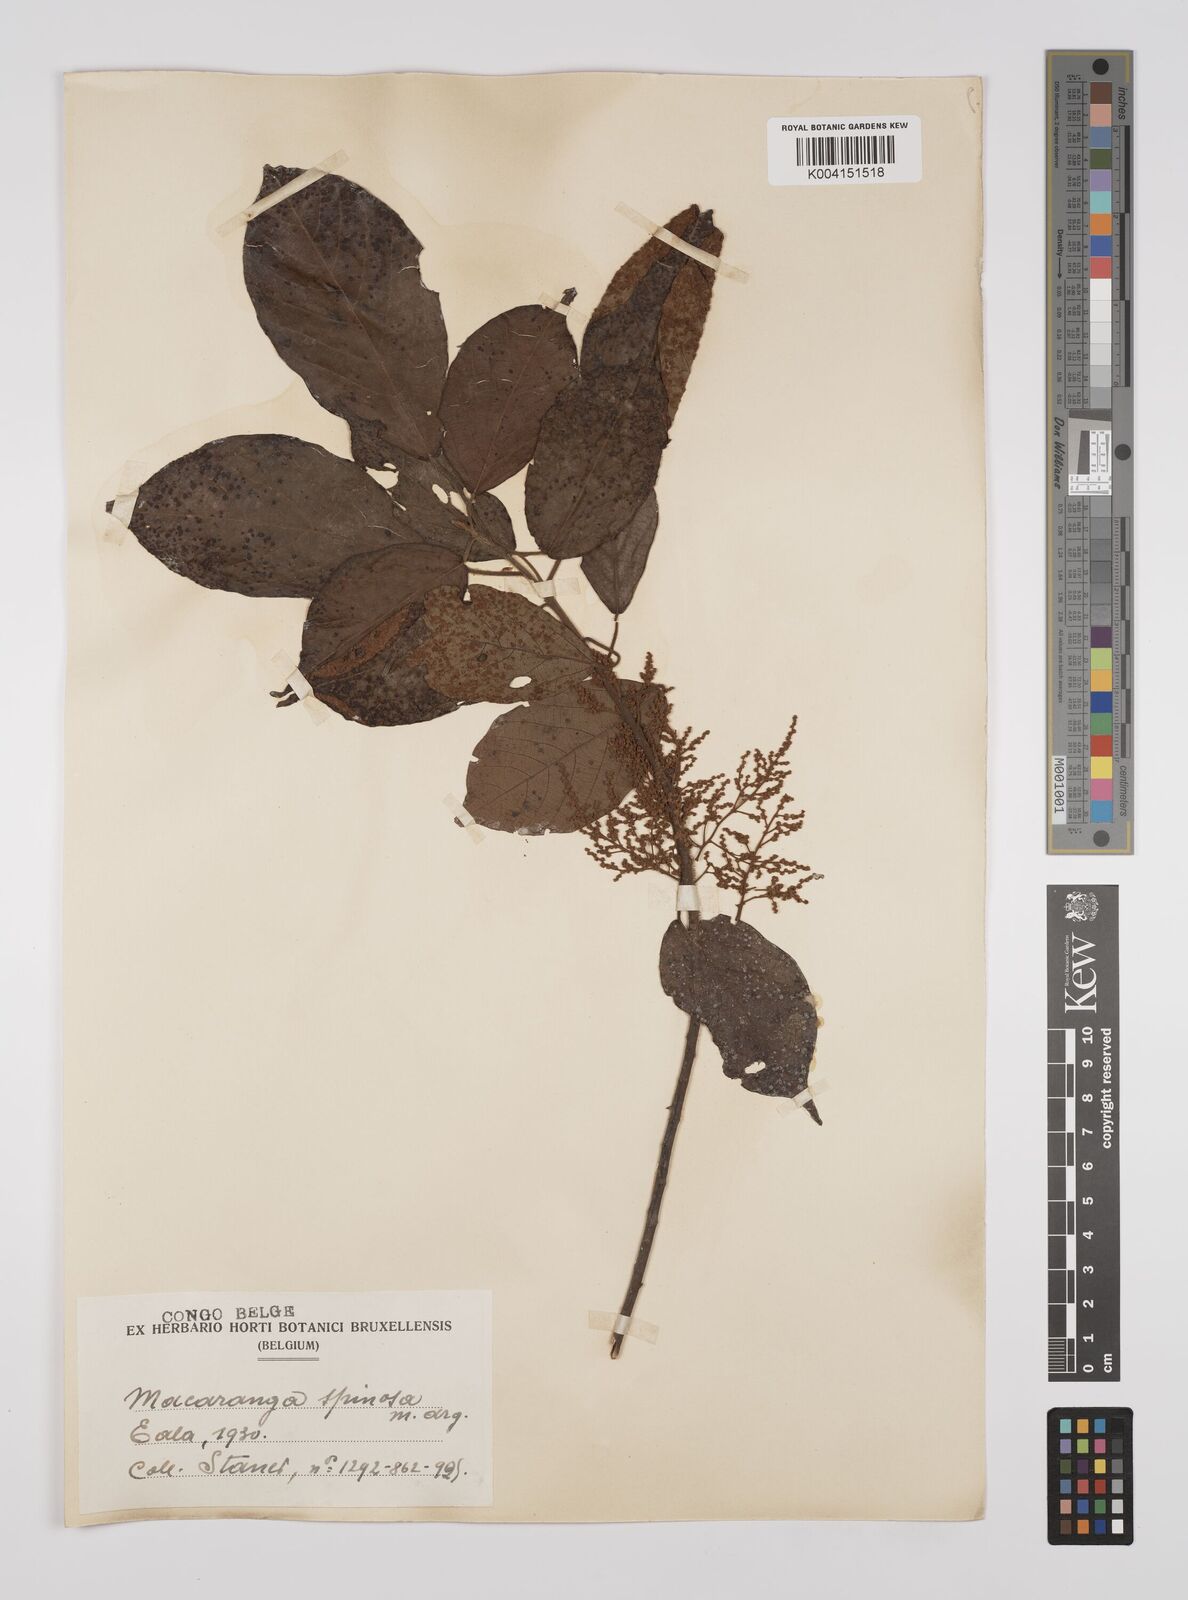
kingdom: Plantae
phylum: Tracheophyta
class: Magnoliopsida
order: Malpighiales
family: Euphorbiaceae
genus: Macaranga
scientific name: Macaranga spinosa
